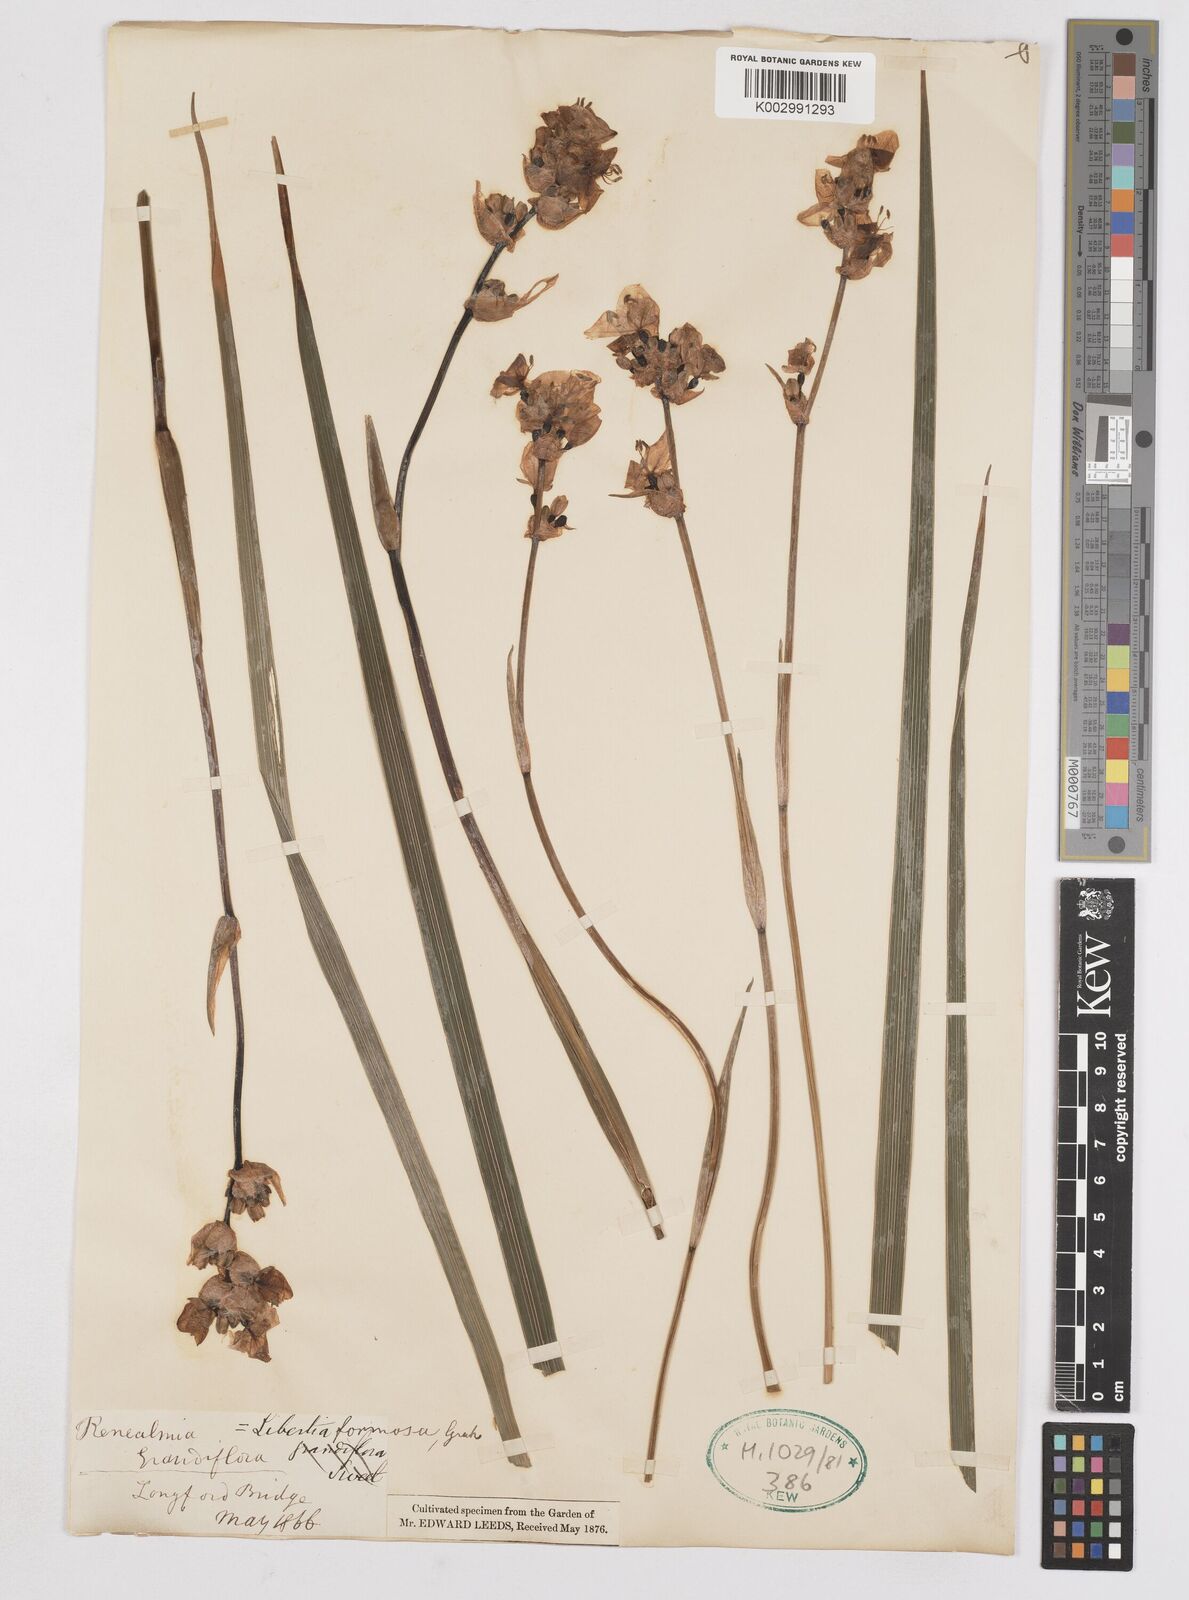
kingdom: Plantae
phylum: Tracheophyta
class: Liliopsida
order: Asparagales
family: Iridaceae
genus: Libertia
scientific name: Libertia chilensis
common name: Satin flower
